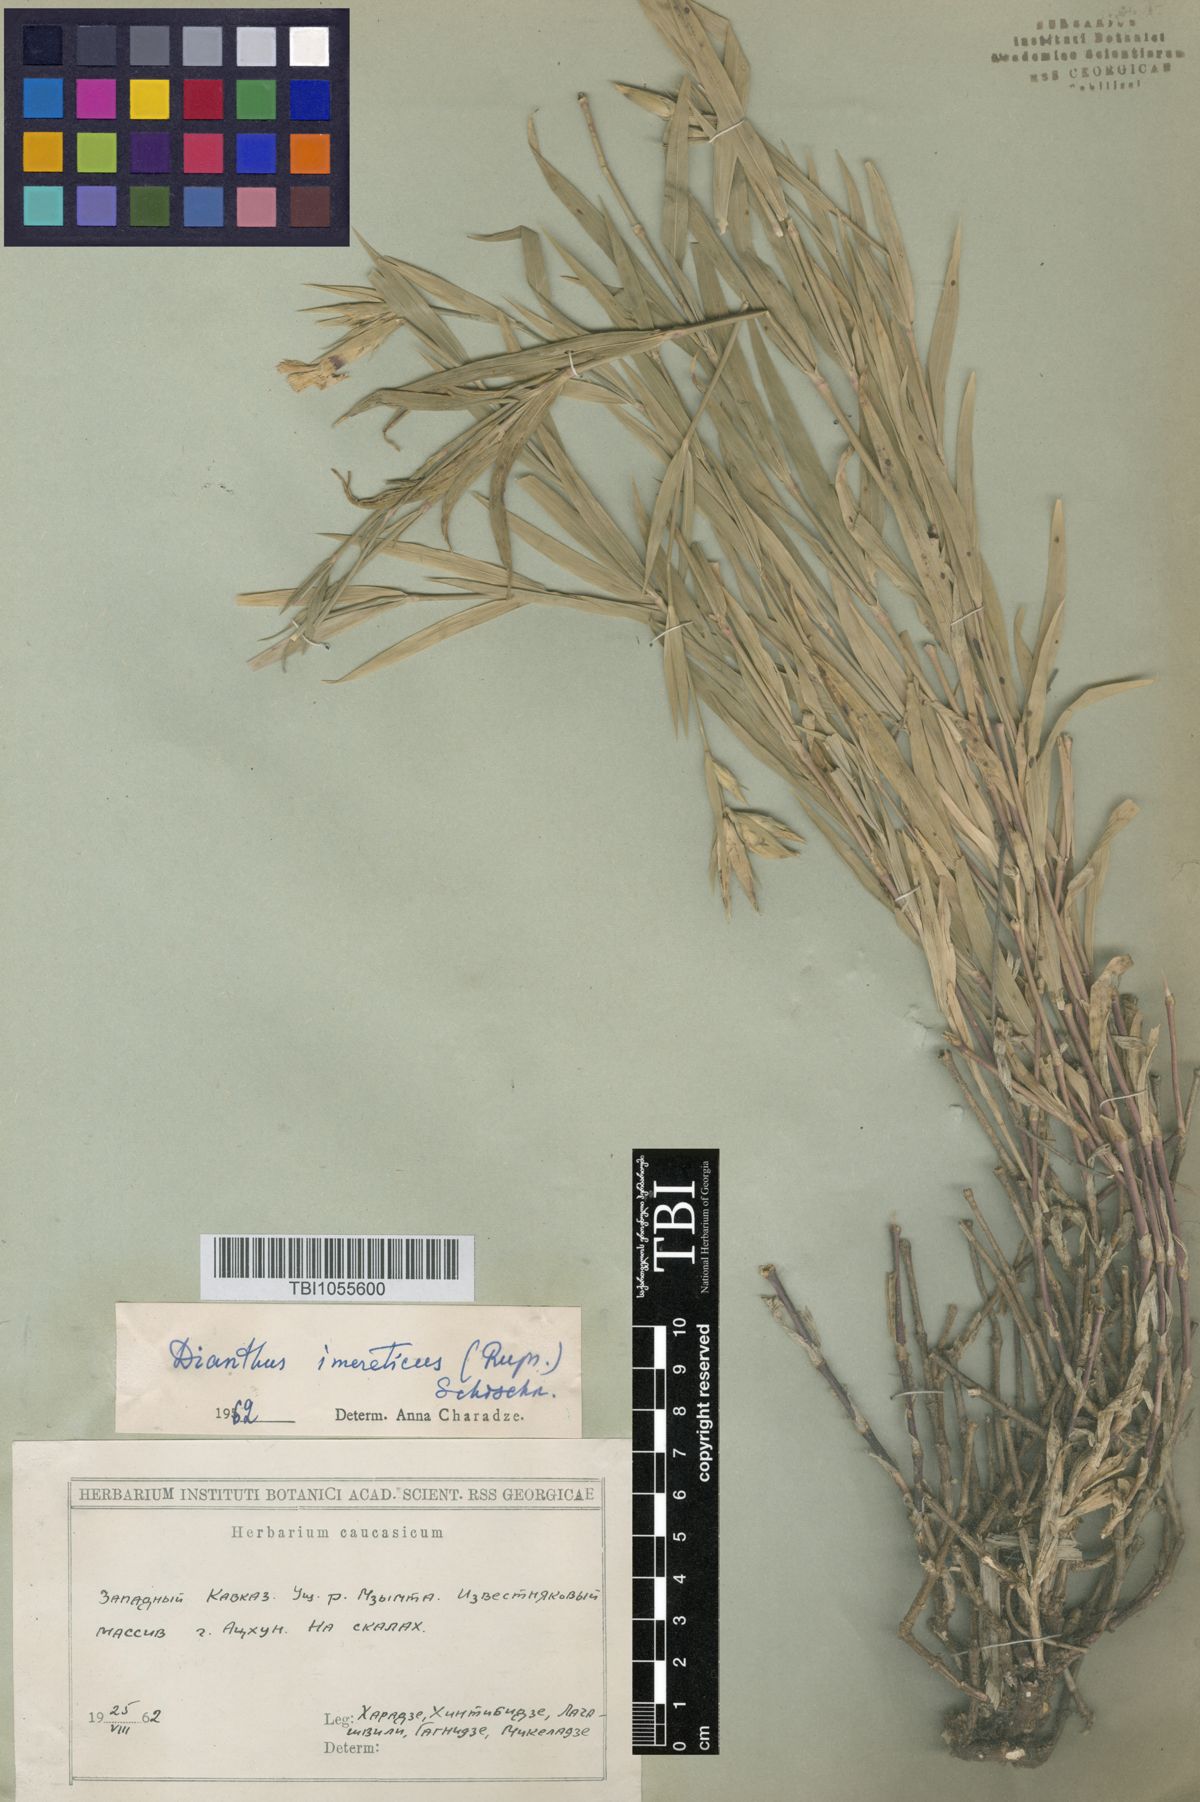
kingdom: Plantae
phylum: Tracheophyta
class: Magnoliopsida
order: Caryophyllales
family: Caryophyllaceae
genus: Dianthus
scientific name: Dianthus imereticus
